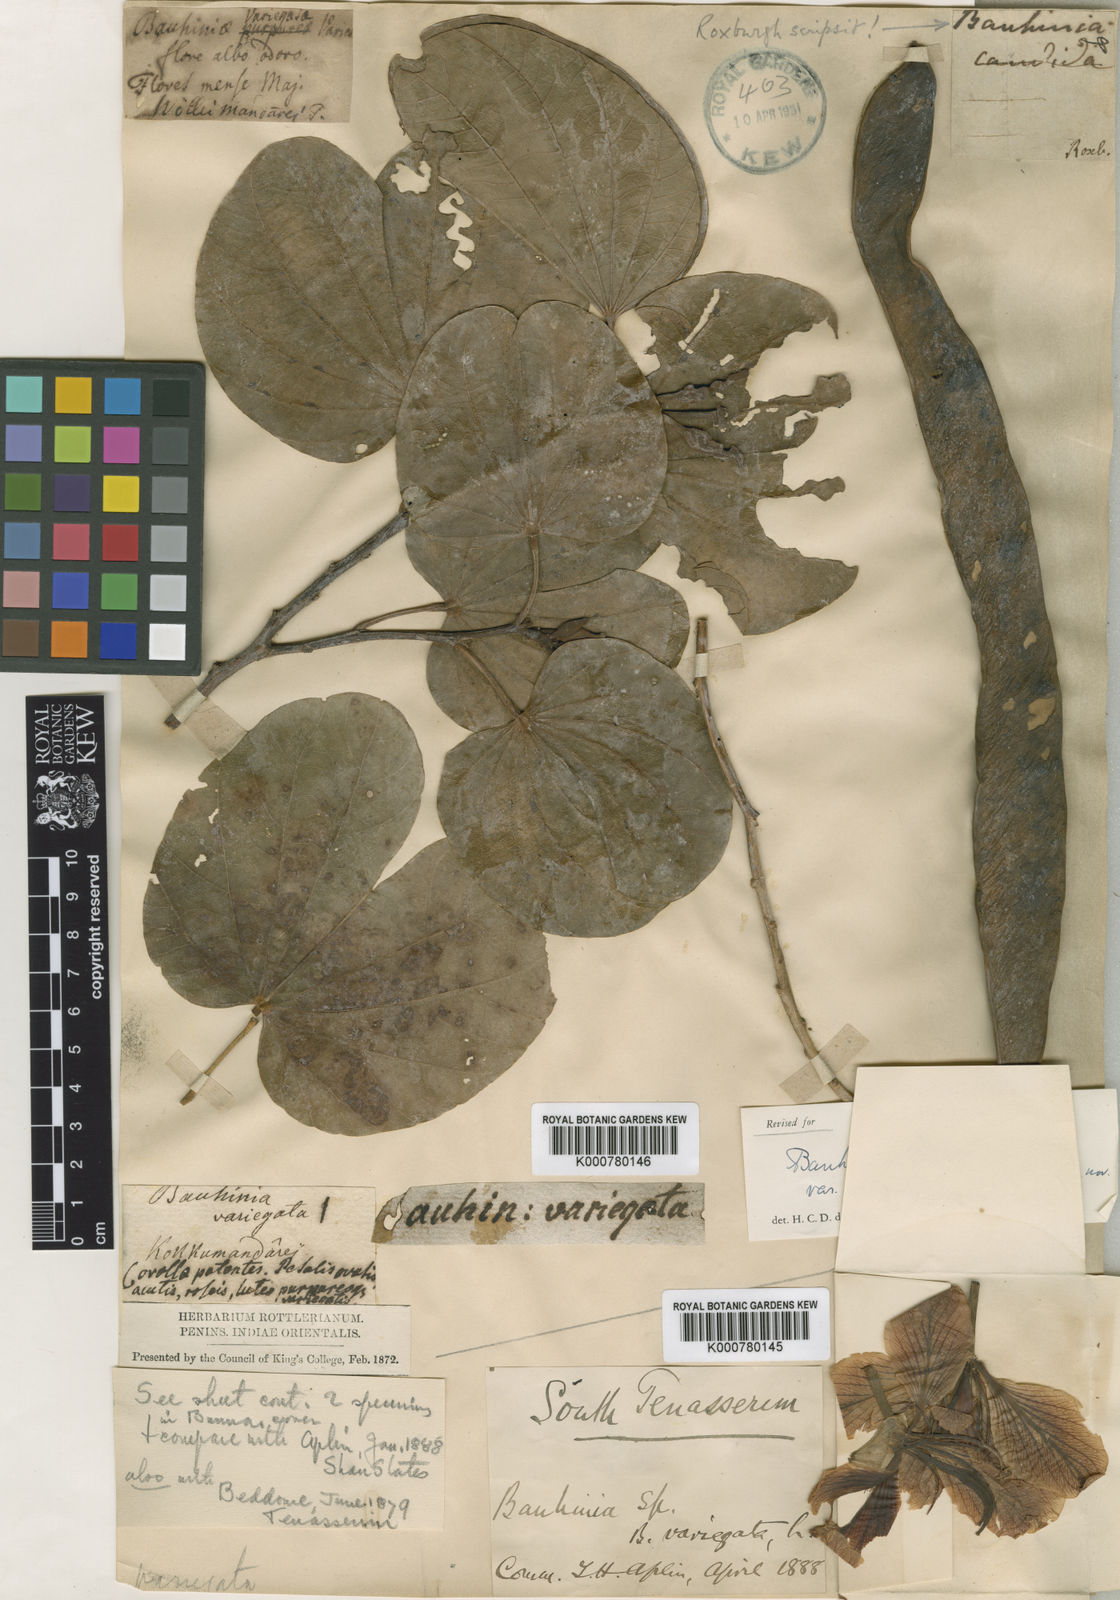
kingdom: Plantae
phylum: Tracheophyta
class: Magnoliopsida
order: Fabales
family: Fabaceae
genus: Bauhinia
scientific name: Bauhinia variegata
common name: Mountain ebony
